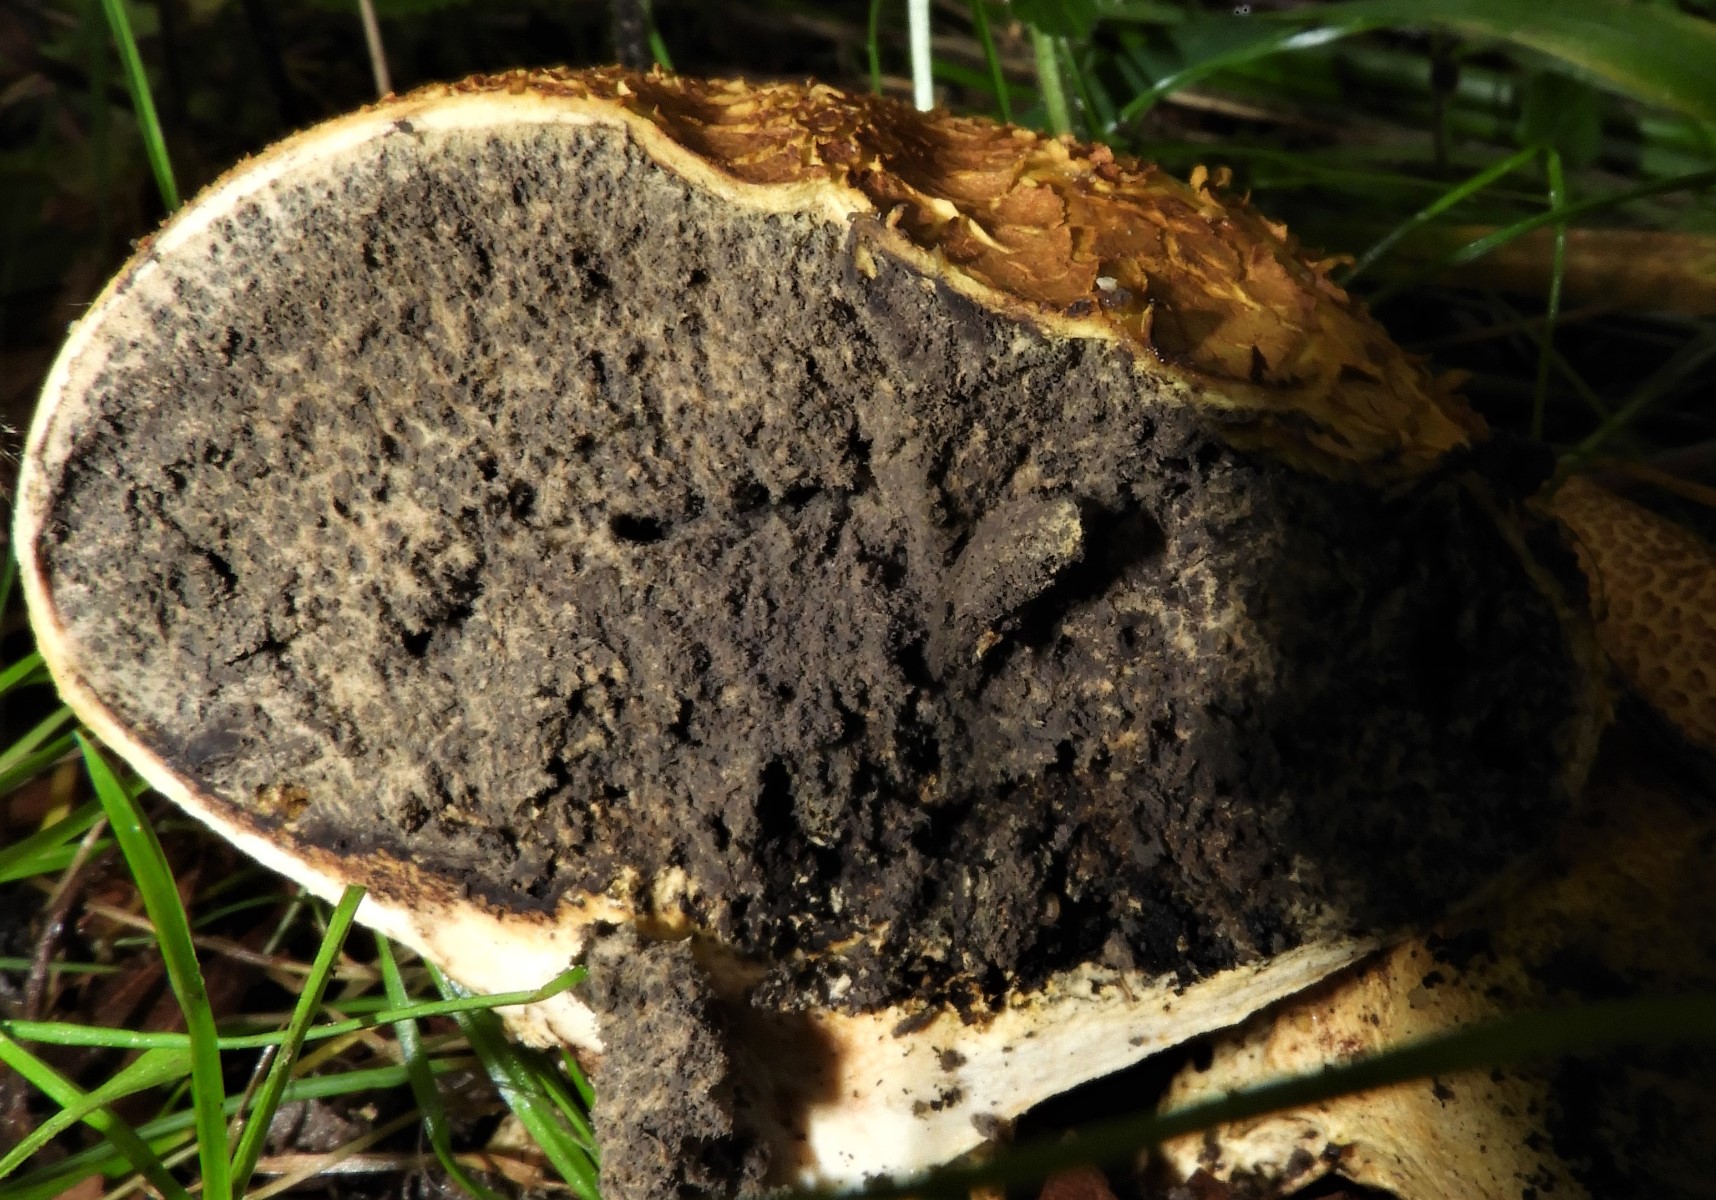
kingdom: Fungi
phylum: Basidiomycota
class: Agaricomycetes
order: Boletales
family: Sclerodermataceae
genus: Scleroderma
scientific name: Scleroderma citrinum
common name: almindelig bruskbold
